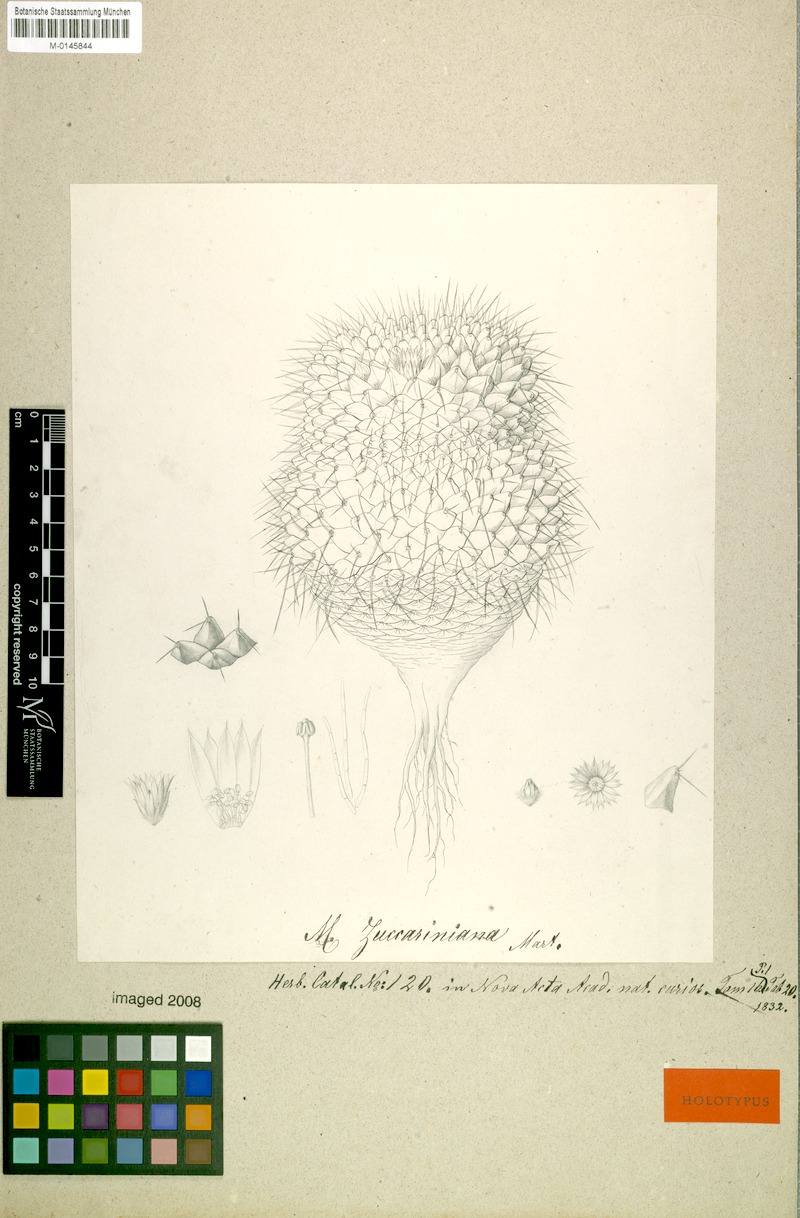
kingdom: Plantae
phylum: Tracheophyta
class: Magnoliopsida
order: Caryophyllales
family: Cactaceae
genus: Mammillaria
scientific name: Mammillaria magnimamma
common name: Mexican pincushion
